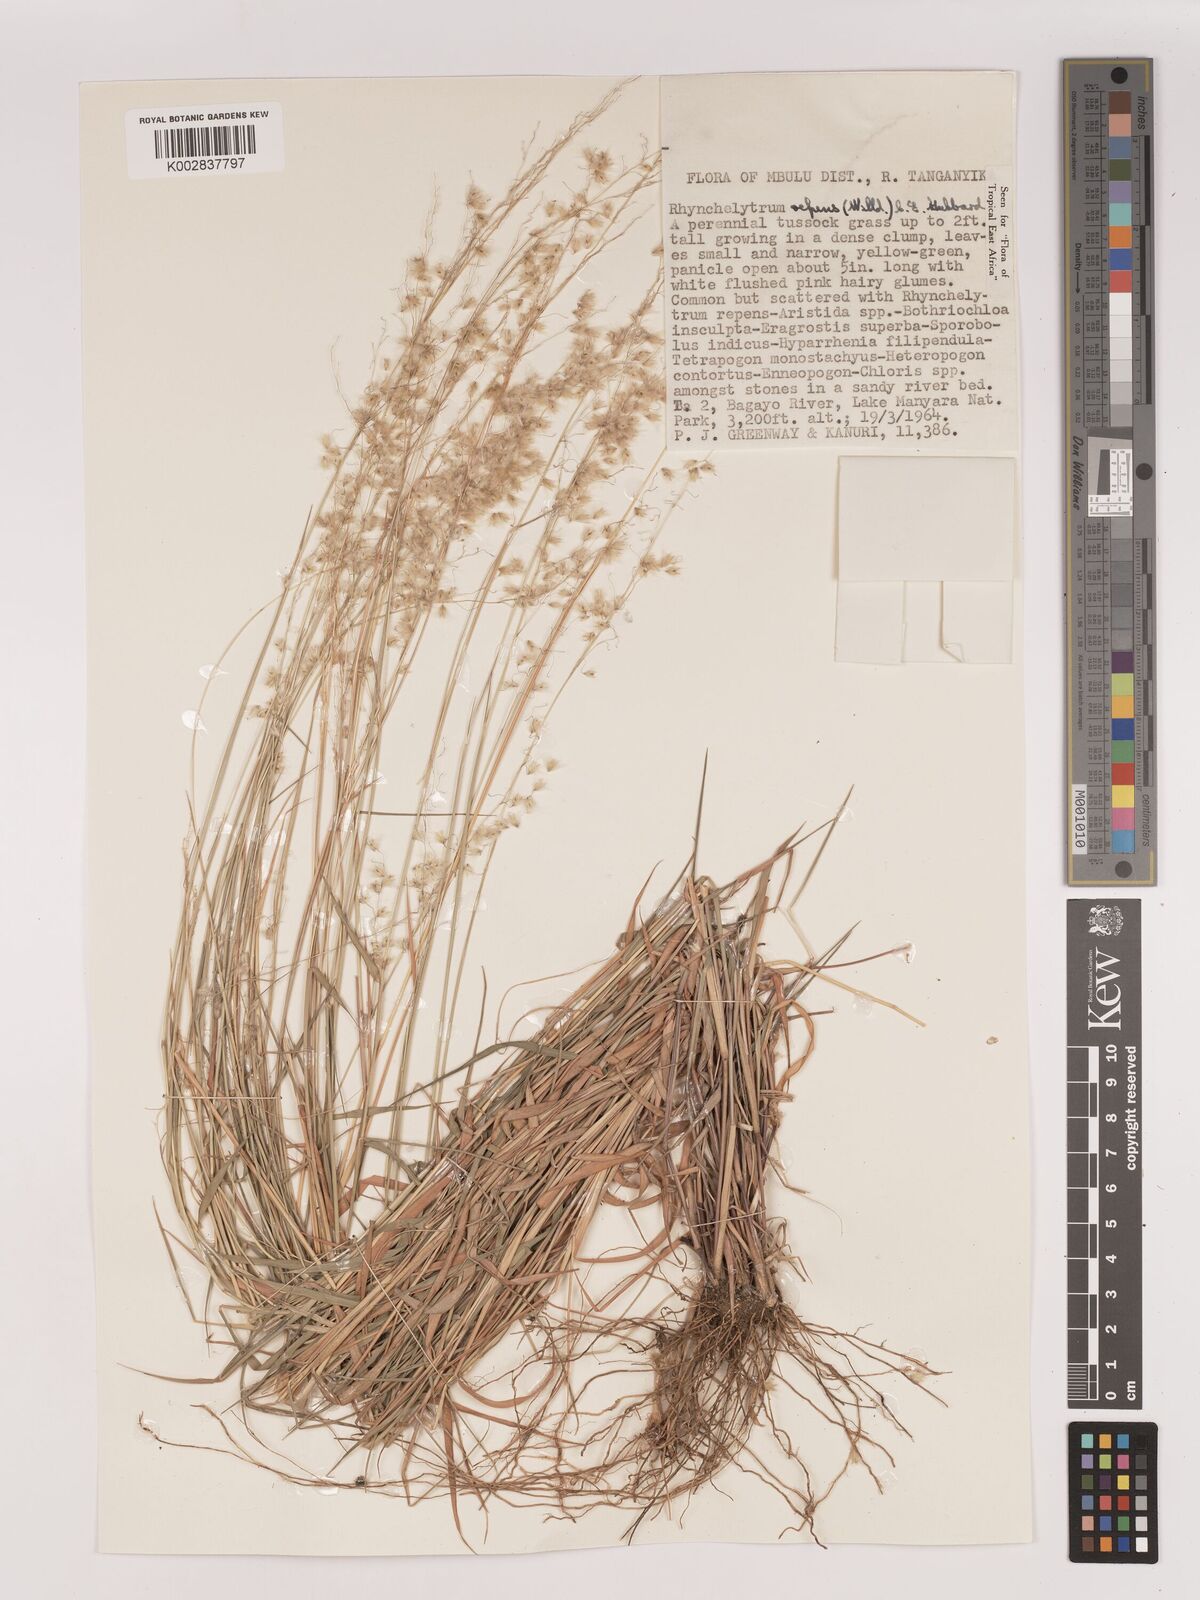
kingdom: Plantae
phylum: Tracheophyta
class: Liliopsida
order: Poales
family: Poaceae
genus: Melinis
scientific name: Melinis repens
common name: Rose natal grass
